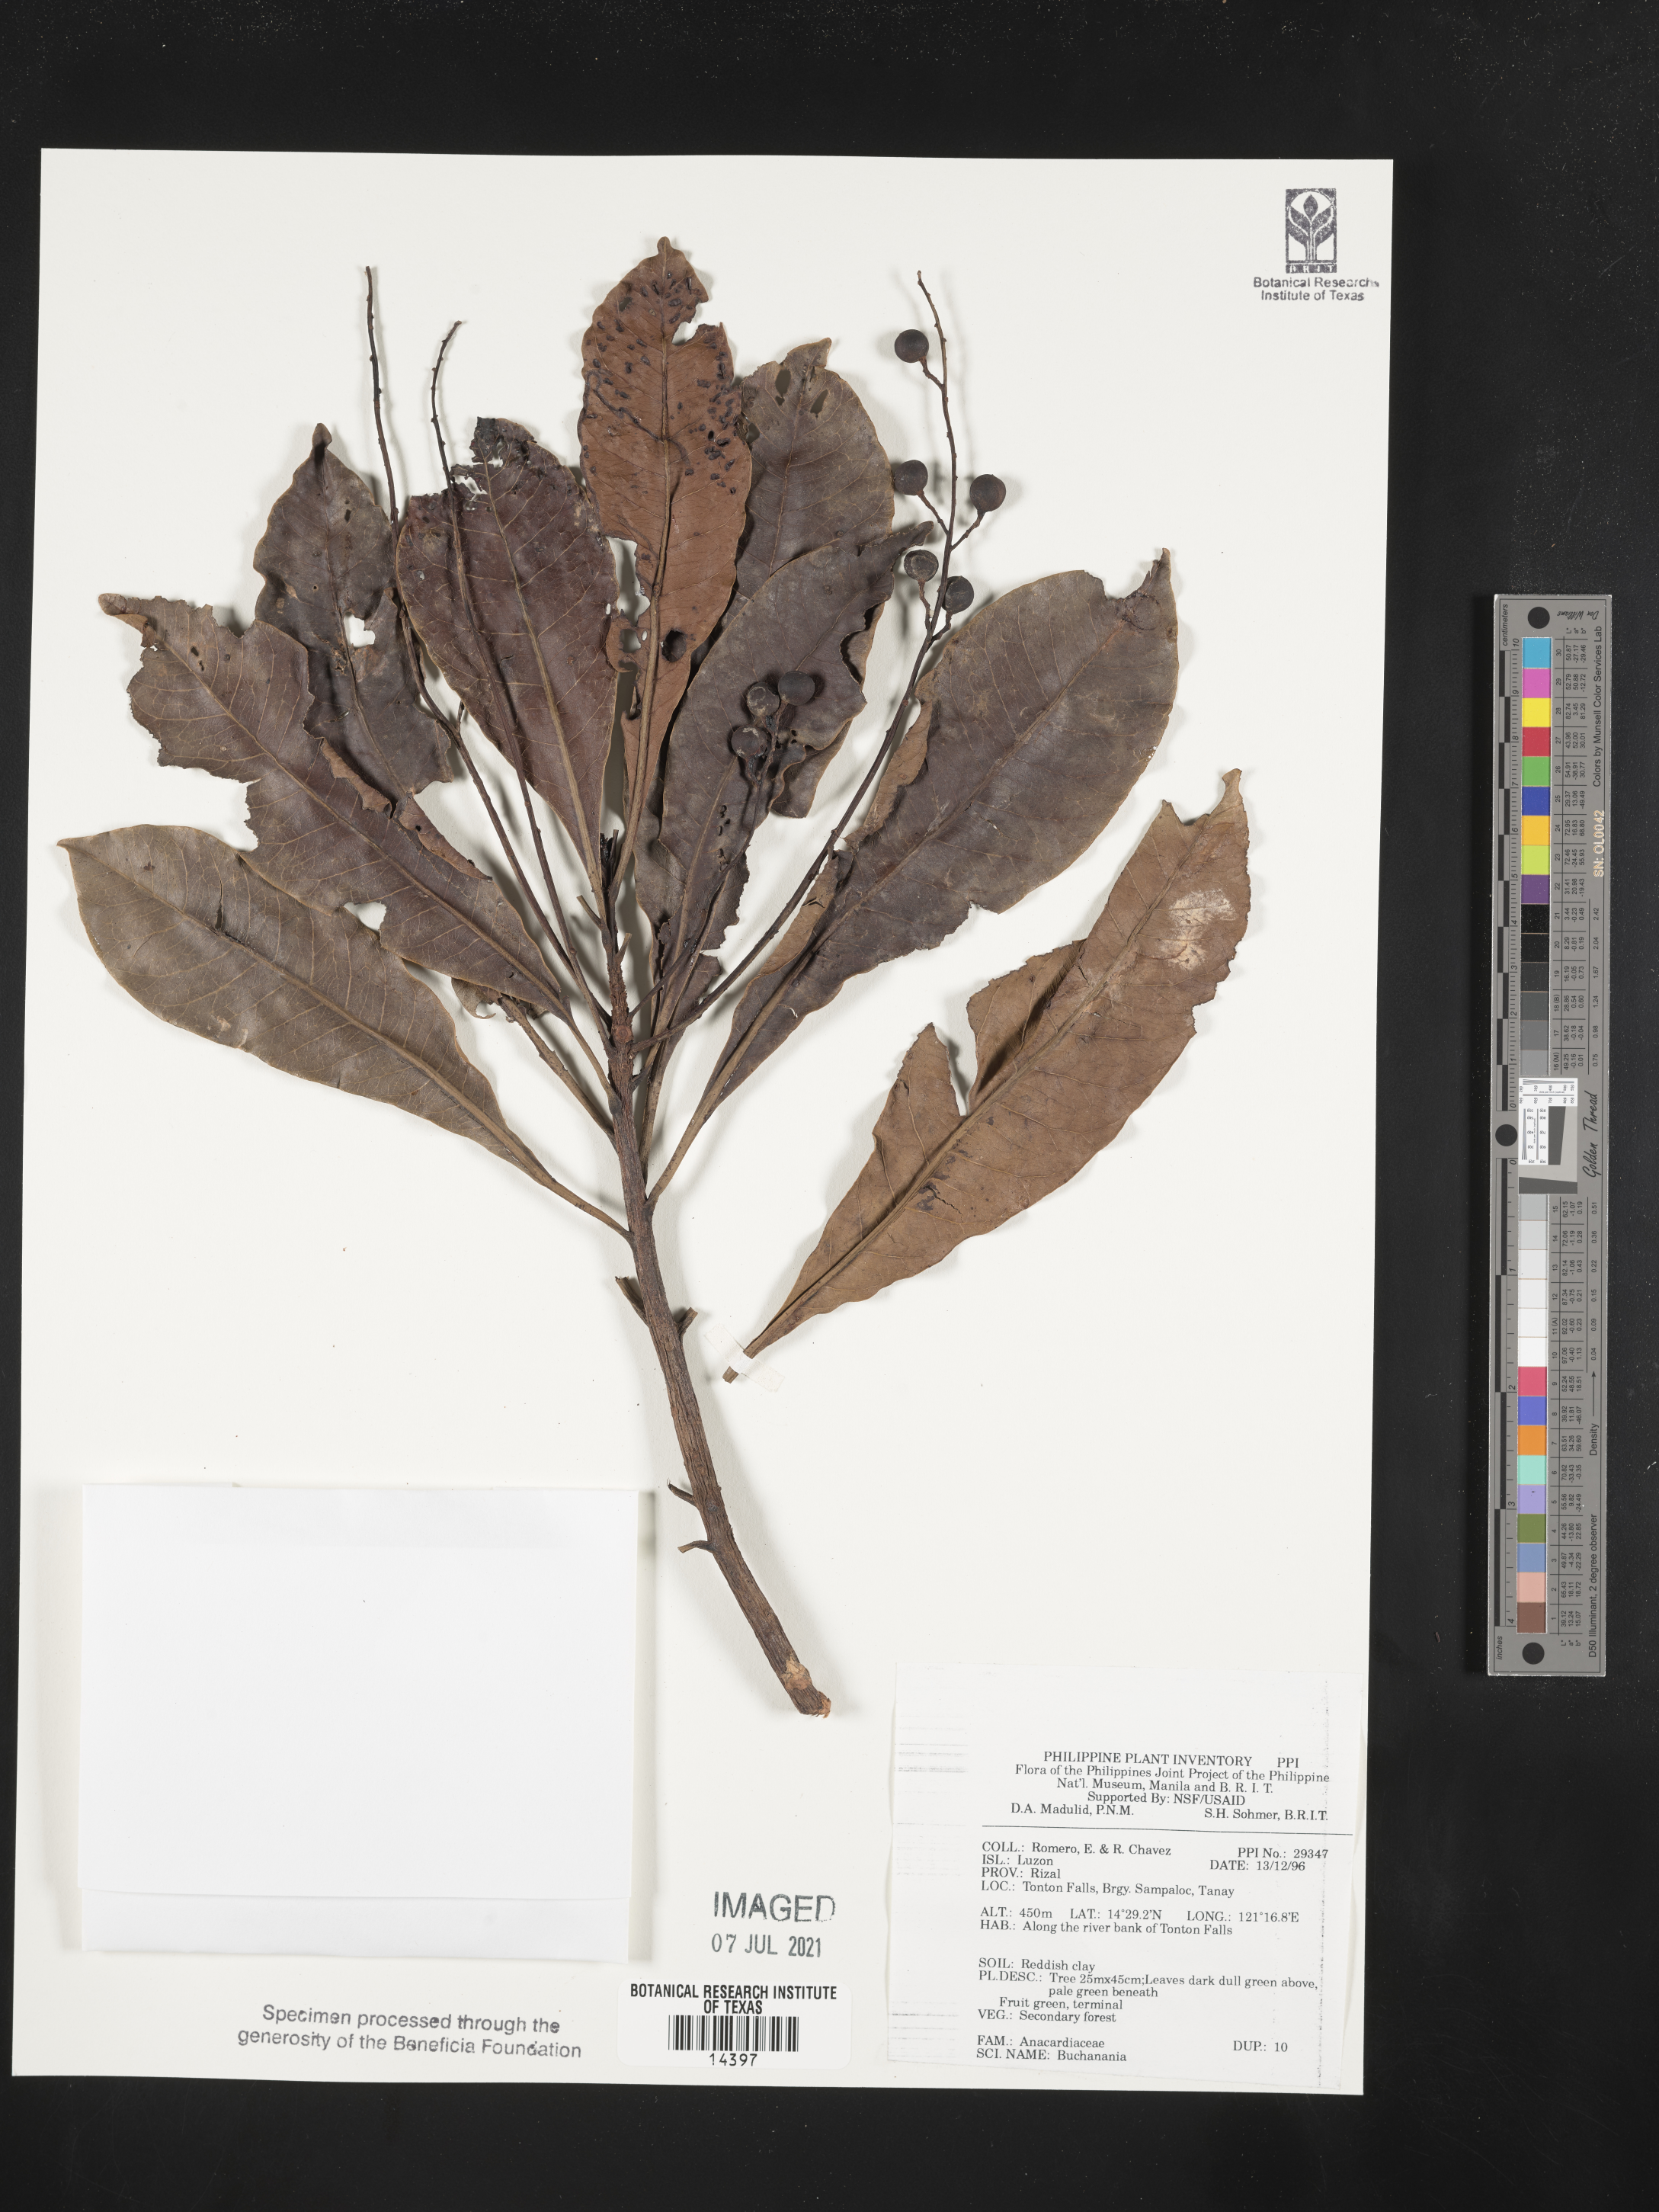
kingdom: Plantae
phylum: Tracheophyta
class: Magnoliopsida
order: Sapindales
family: Anacardiaceae
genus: Buchanania
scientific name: Buchanania
